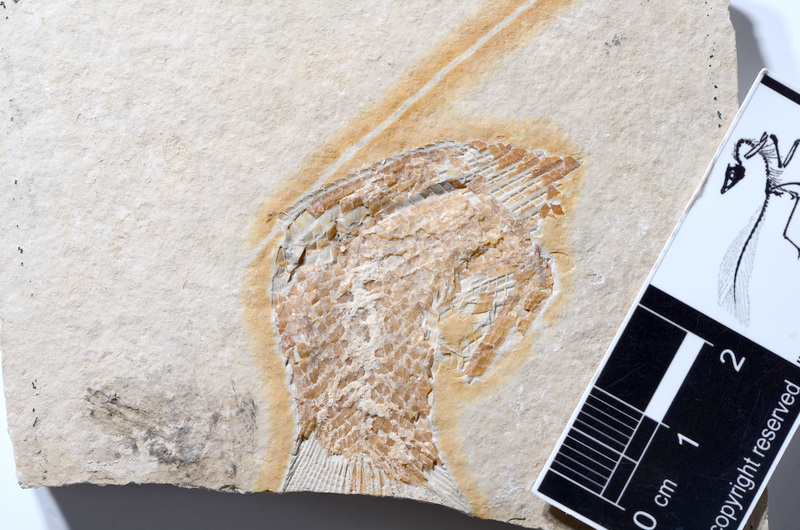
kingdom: Animalia
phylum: Chordata
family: Ophiopsiellidae
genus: Furo
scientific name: Furo
